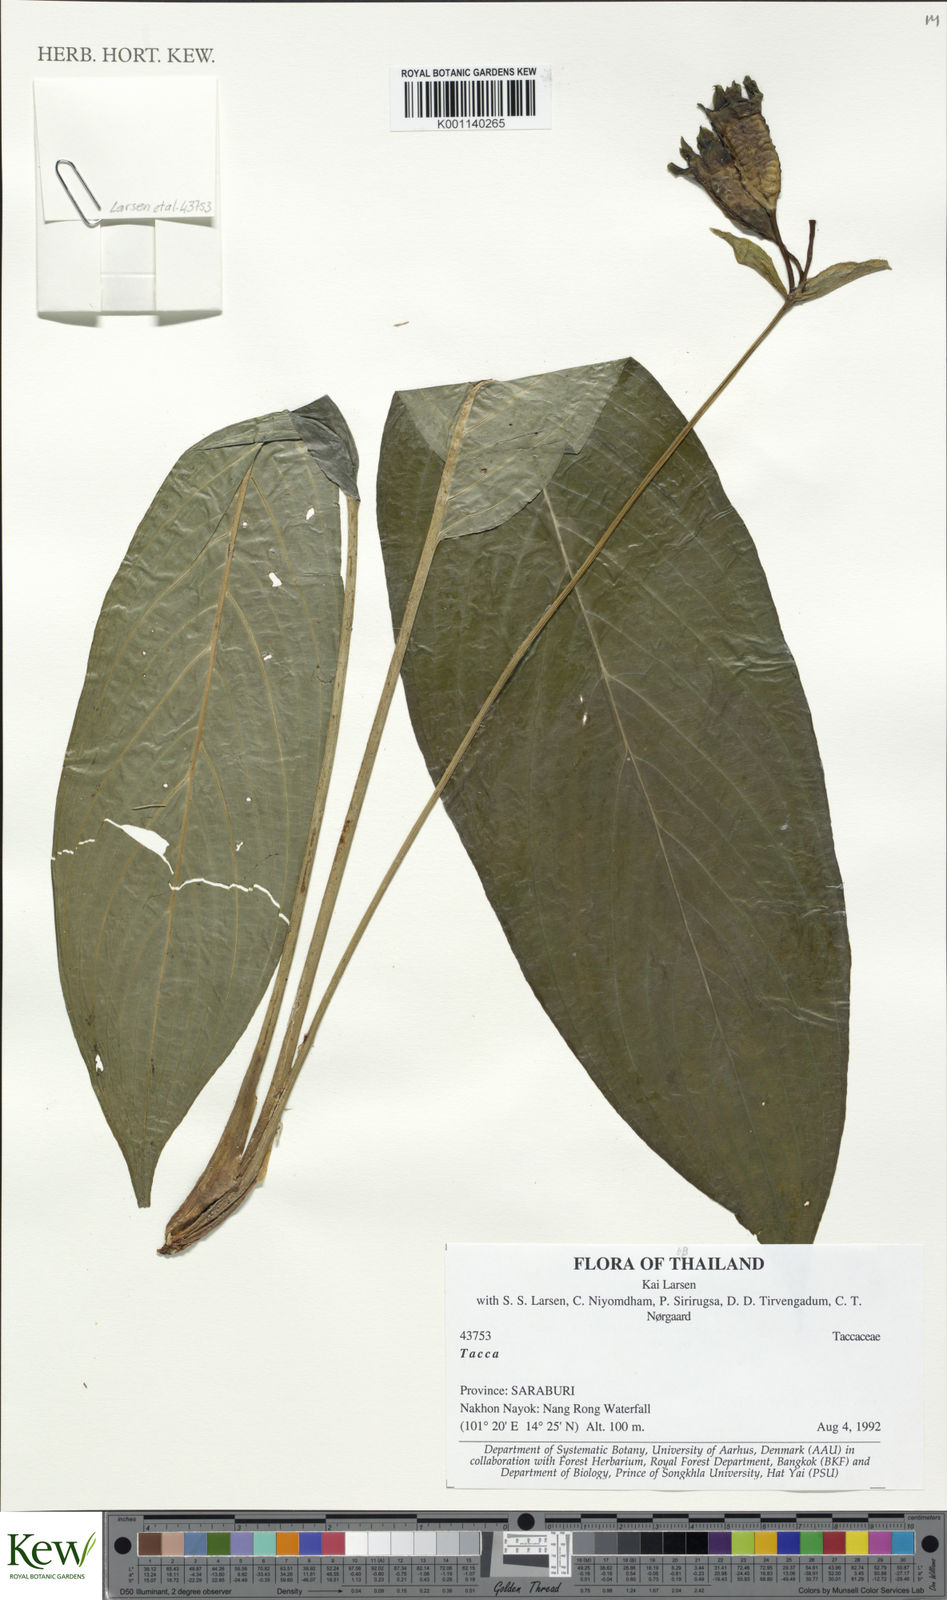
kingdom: Plantae
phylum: Tracheophyta
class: Liliopsida
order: Dioscoreales
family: Dioscoreaceae
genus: Tacca
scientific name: Tacca
